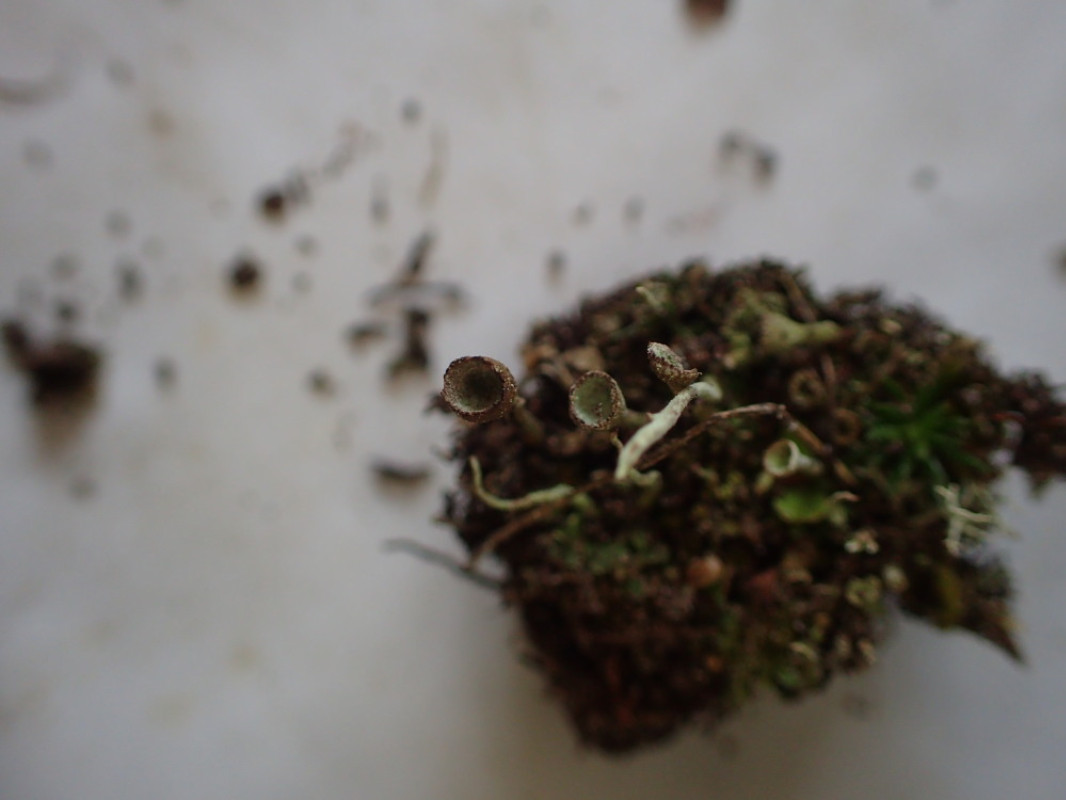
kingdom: Fungi
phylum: Ascomycota
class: Lecanoromycetes
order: Lecanorales
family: Cladoniaceae
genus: Cladonia
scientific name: Cladonia merochlorophaea
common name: mørk bægerlav
